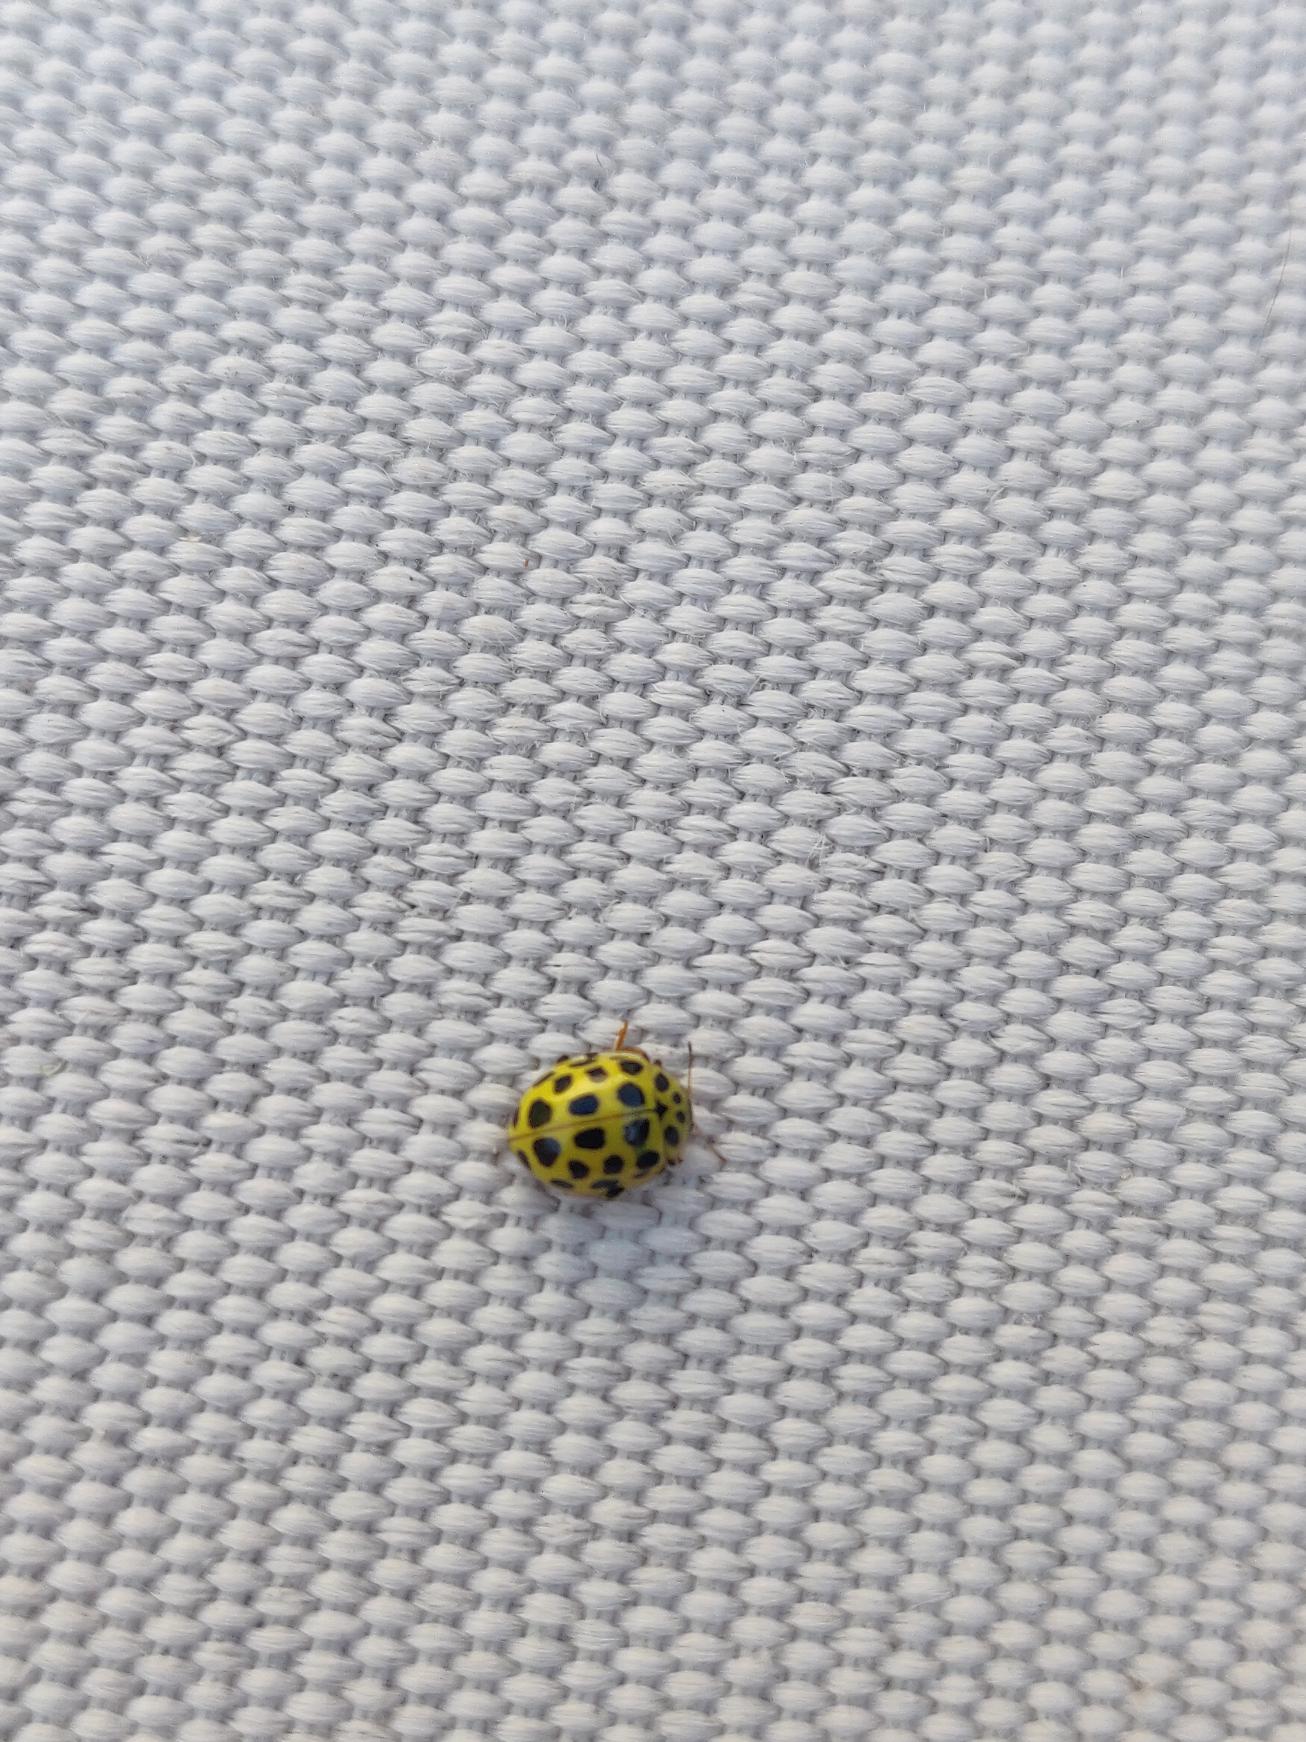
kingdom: Animalia
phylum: Arthropoda
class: Insecta
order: Coleoptera
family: Coccinellidae
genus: Psyllobora
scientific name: Psyllobora vigintiduopunctata
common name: Toogtyveplettet mariehøne
